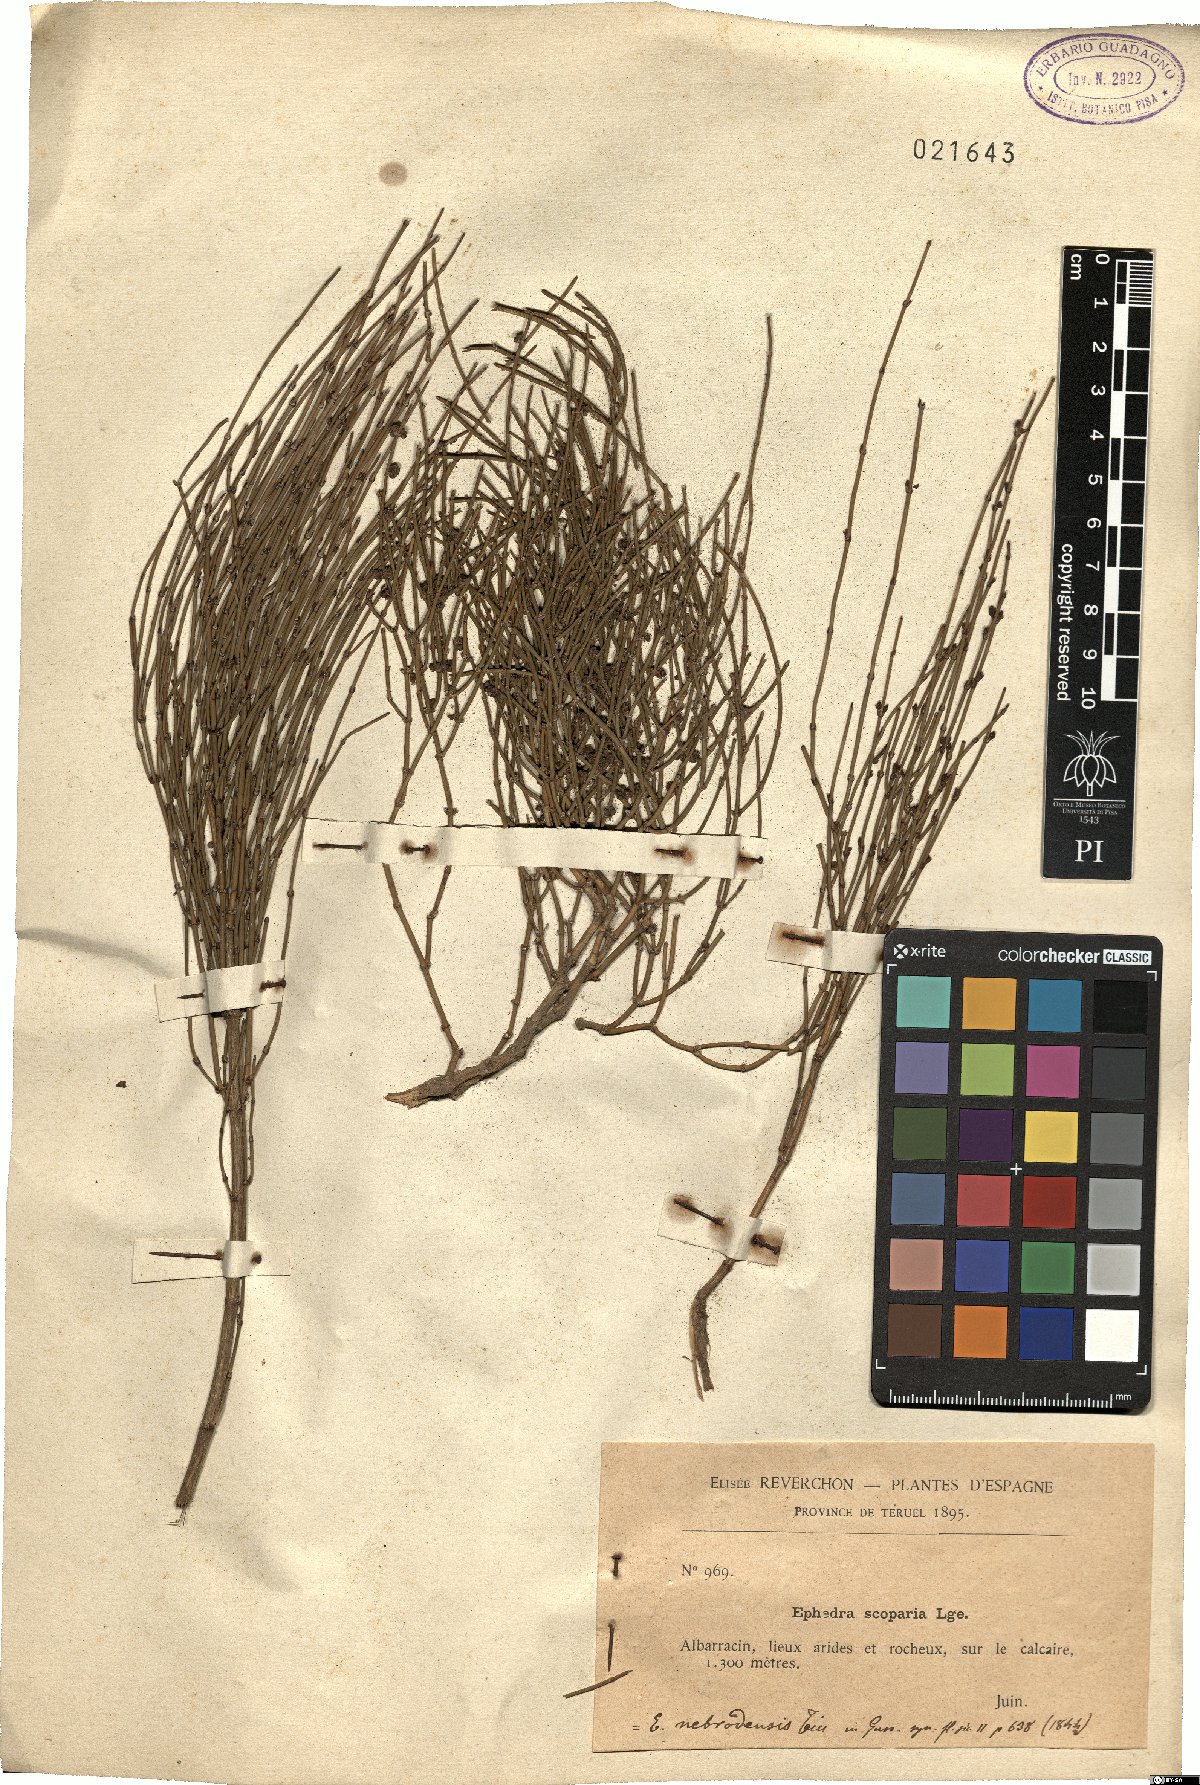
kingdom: Plantae
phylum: Tracheophyta
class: Gnetopsida
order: Ephedrales
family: Ephedraceae
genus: Ephedra
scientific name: Ephedra nebrodensis
